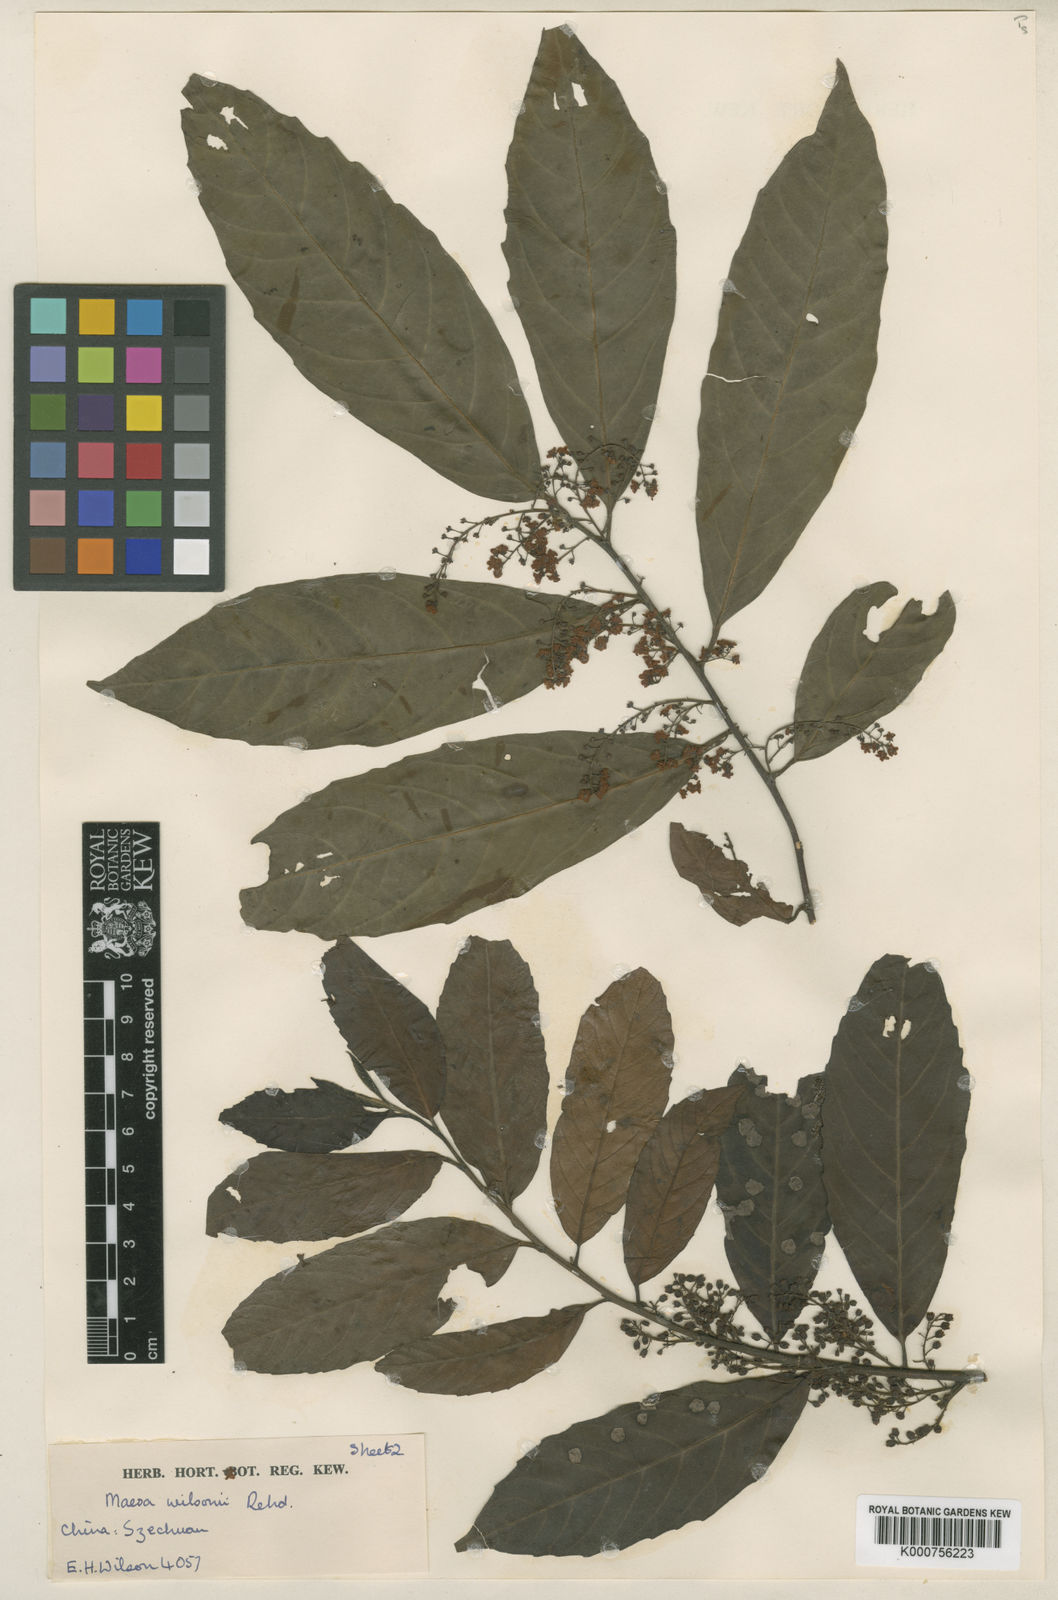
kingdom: Plantae
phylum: Tracheophyta
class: Magnoliopsida
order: Ericales
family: Primulaceae
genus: Maesa
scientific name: Maesa hupehensis
